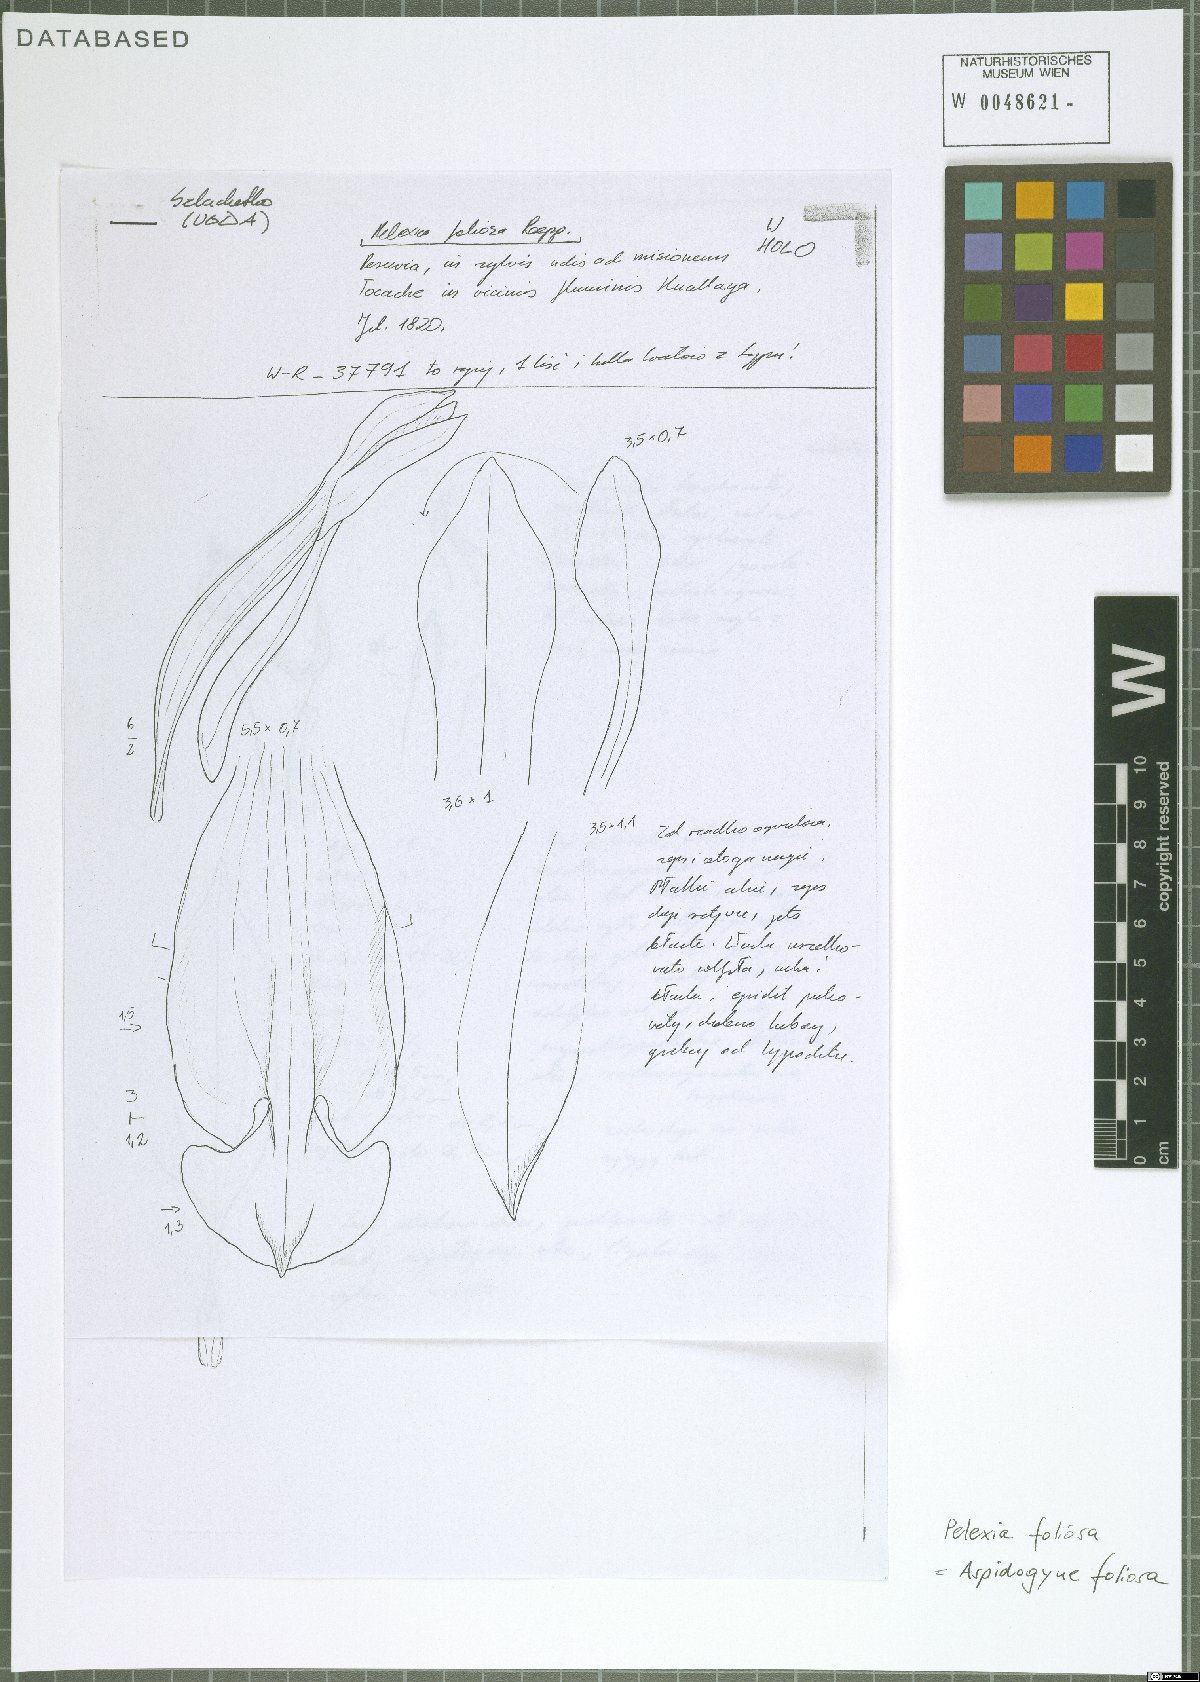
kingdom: Plantae
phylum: Tracheophyta
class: Liliopsida
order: Asparagales
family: Orchidaceae
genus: Aspidogyne
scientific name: Aspidogyne foliosa
